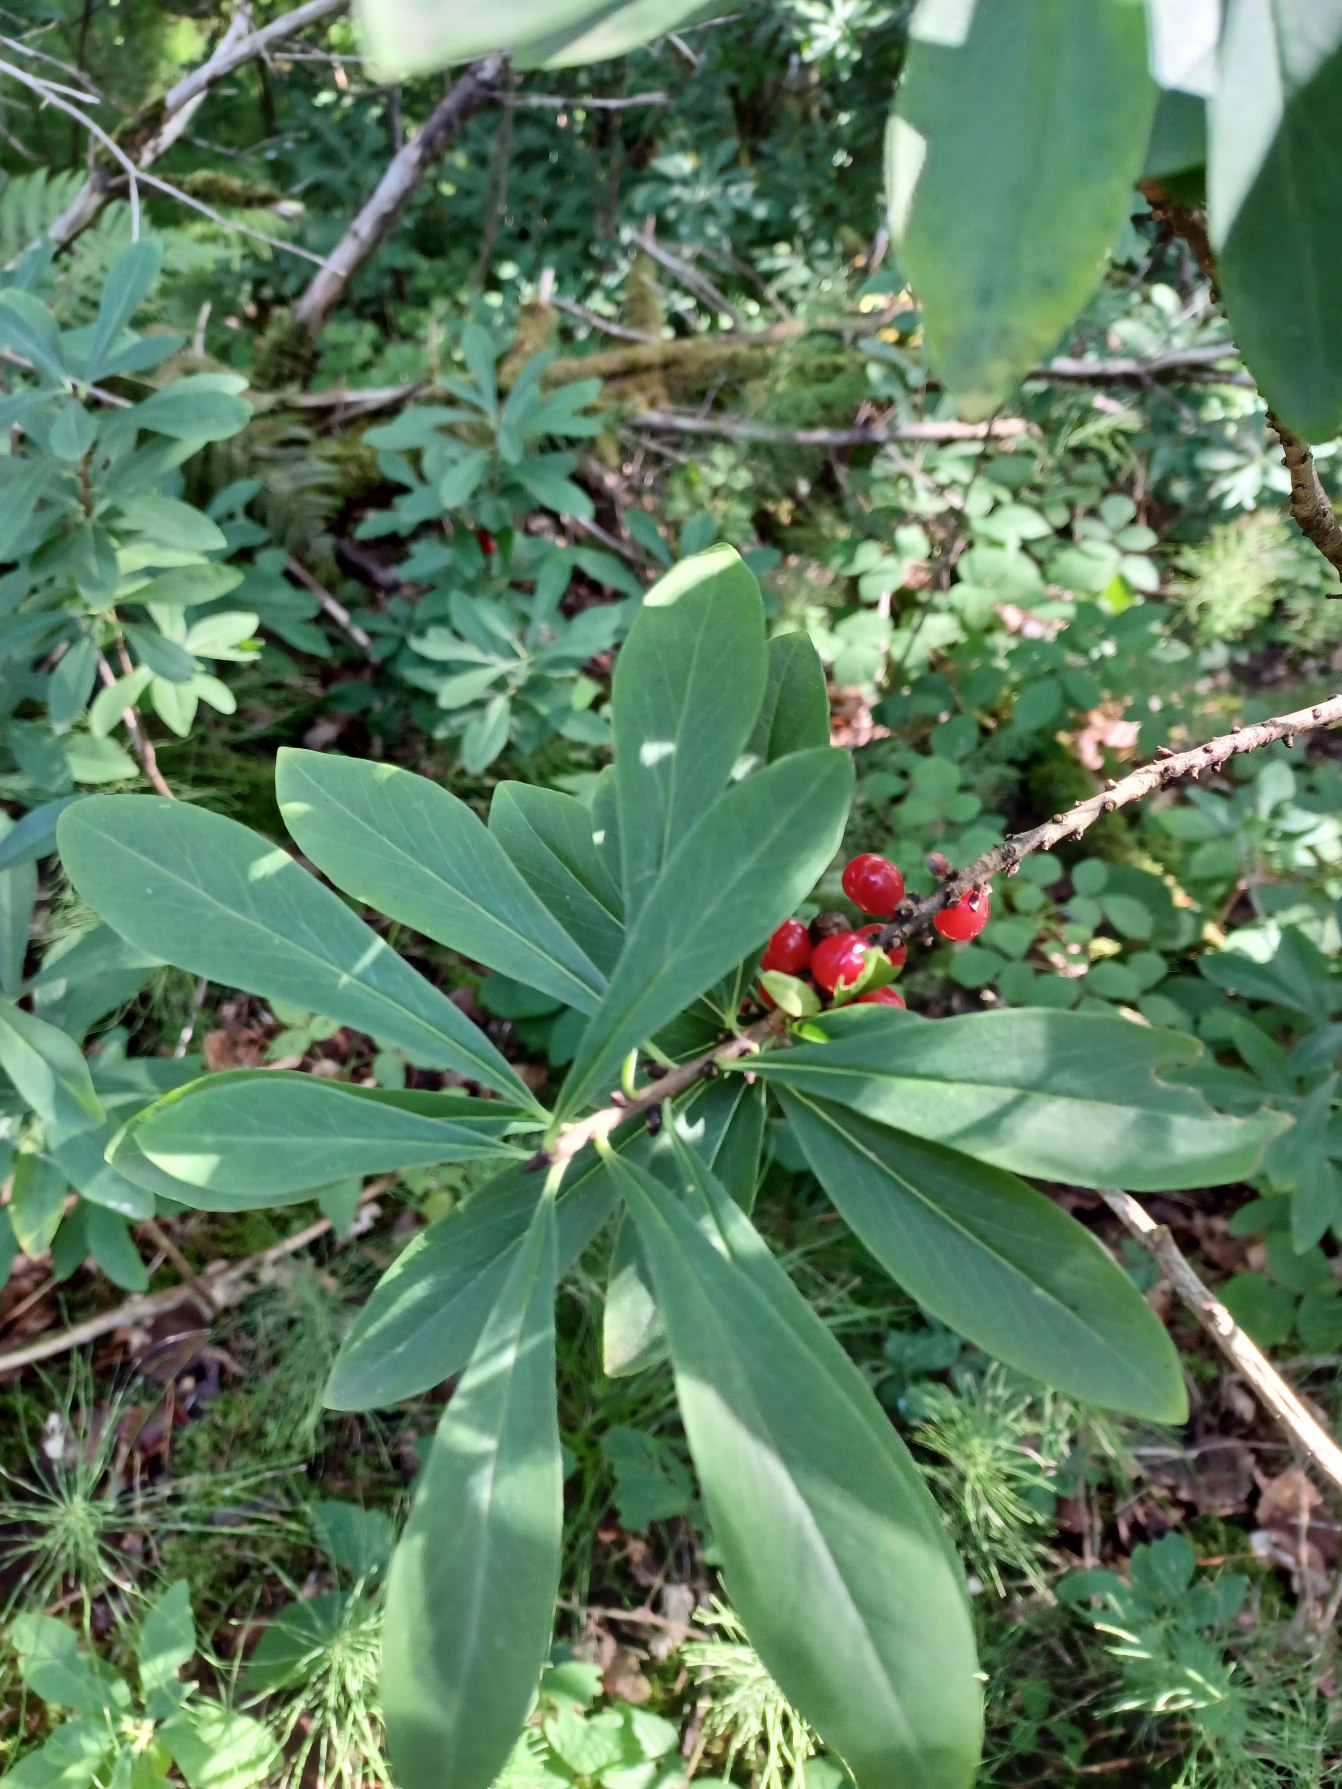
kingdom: Plantae
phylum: Tracheophyta
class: Magnoliopsida
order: Malvales
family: Thymelaeaceae
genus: Daphne
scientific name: Daphne mezereum
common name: Pebertræ
